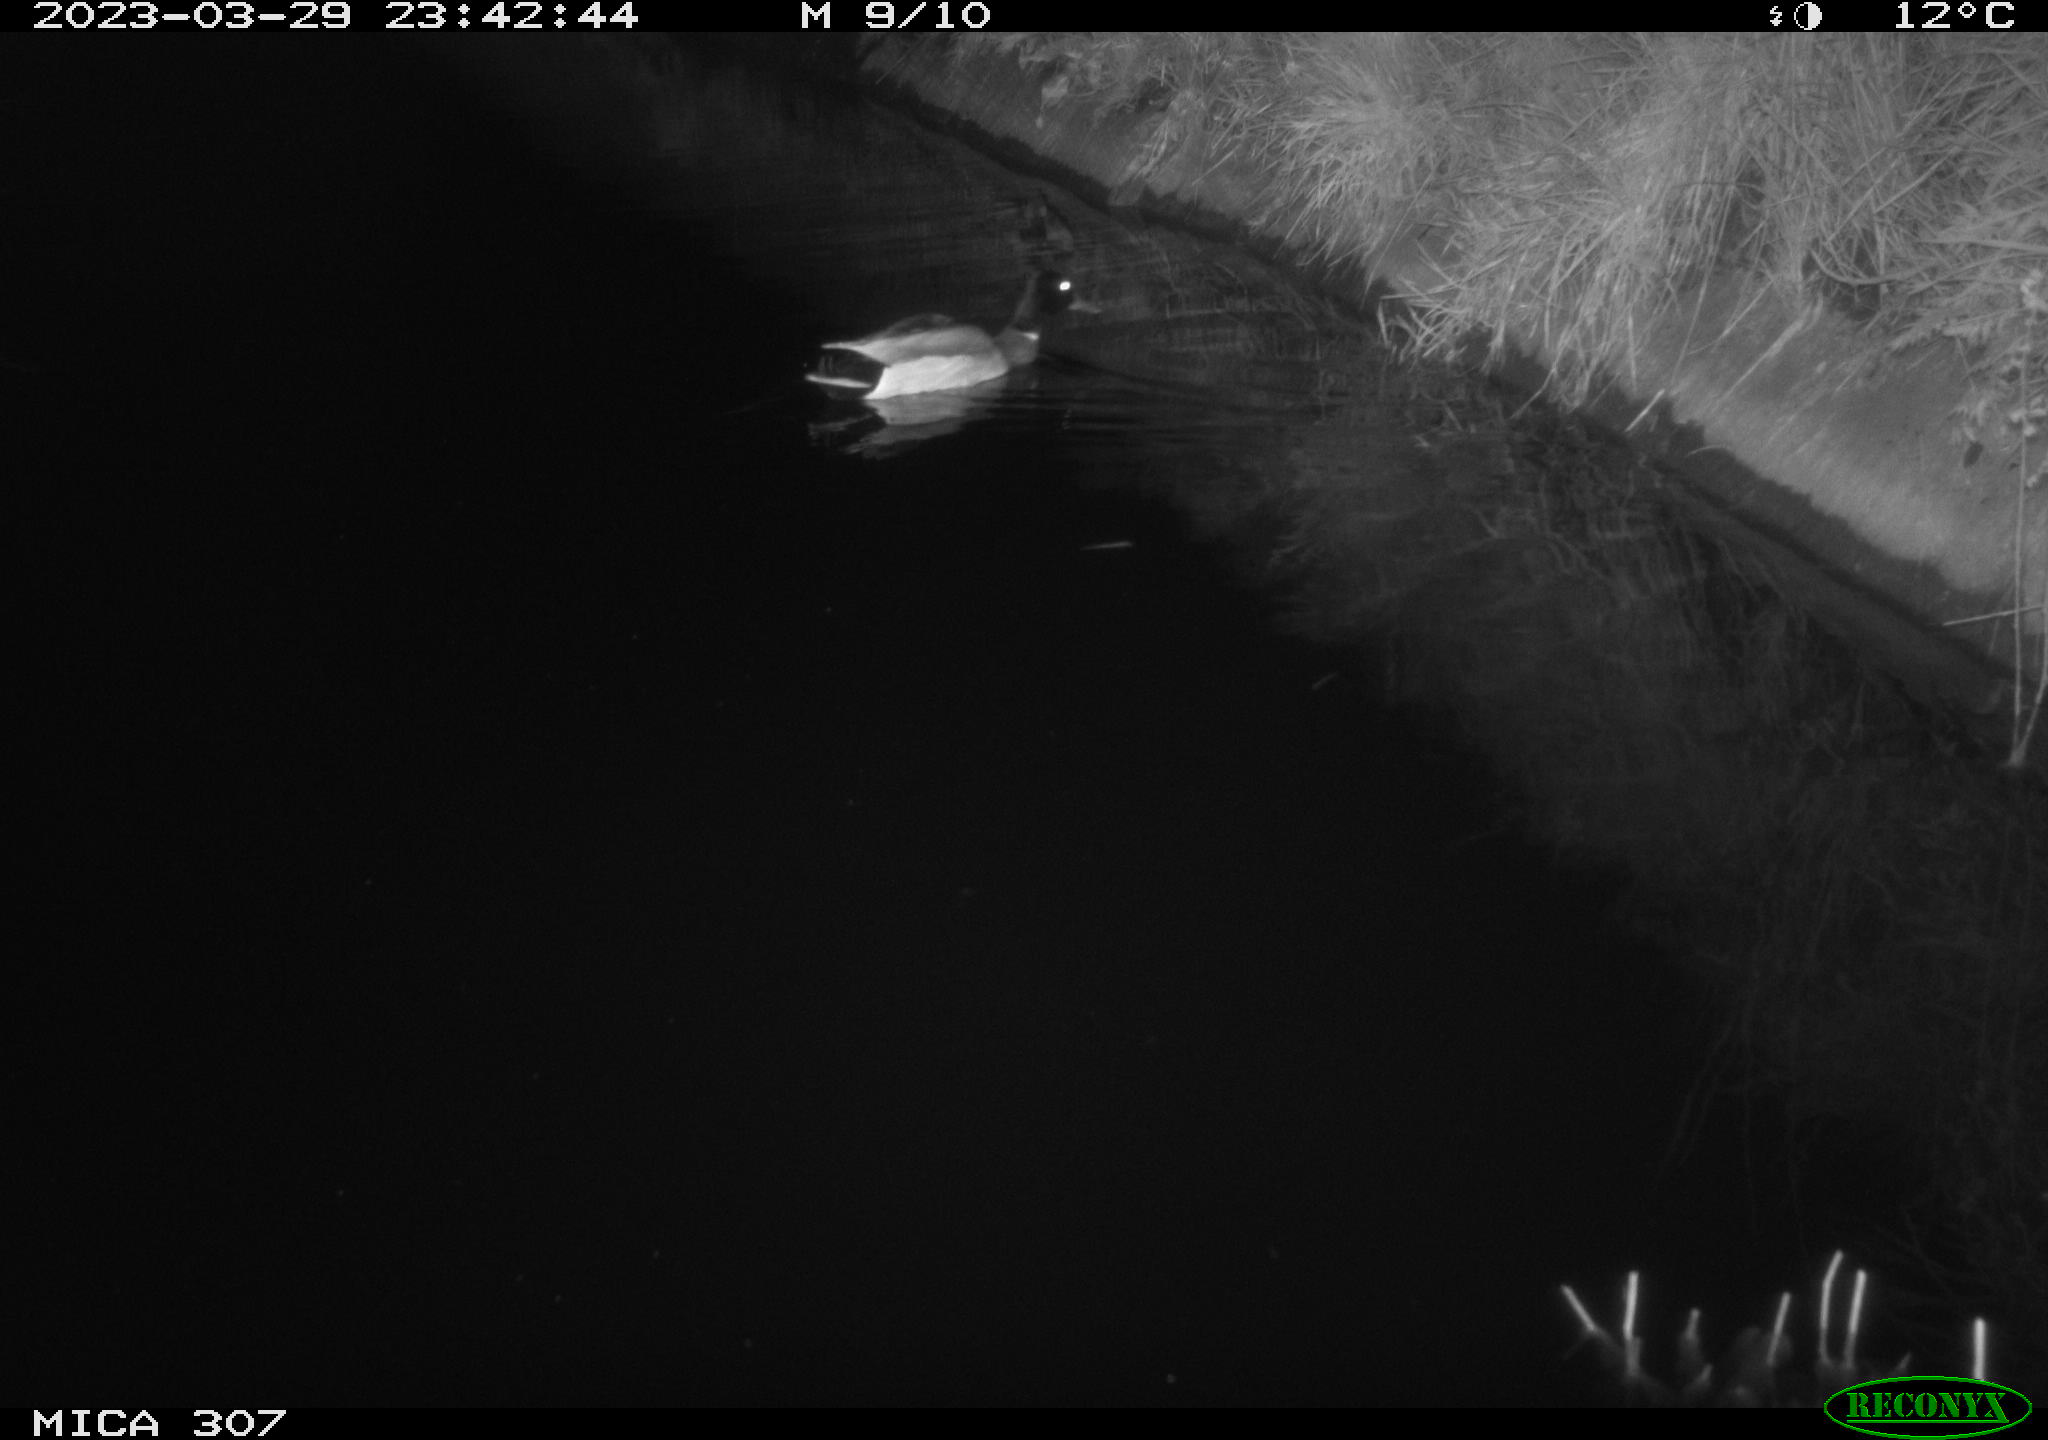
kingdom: Animalia
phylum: Chordata
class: Aves
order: Anseriformes
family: Anatidae
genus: Anas
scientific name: Anas
